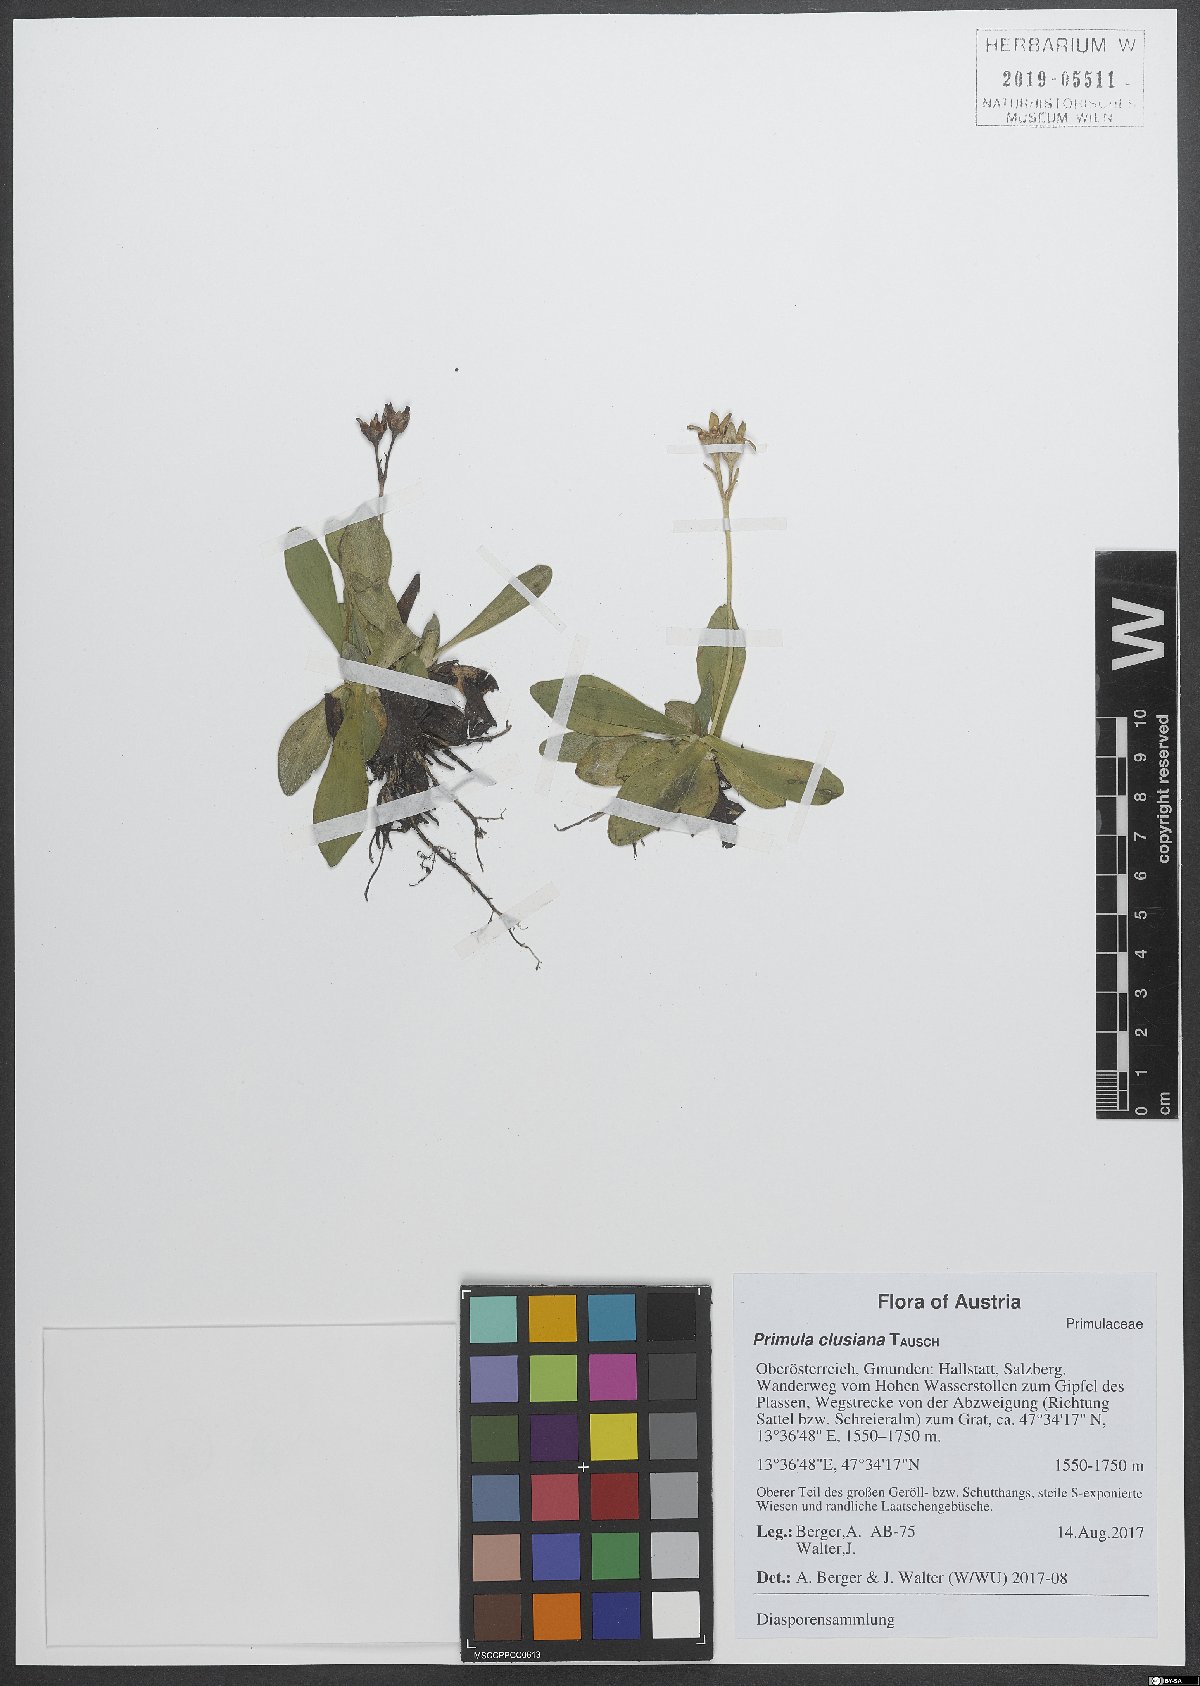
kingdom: Plantae
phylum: Tracheophyta
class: Magnoliopsida
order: Ericales
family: Primulaceae
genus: Primula
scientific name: Primula clusiana
